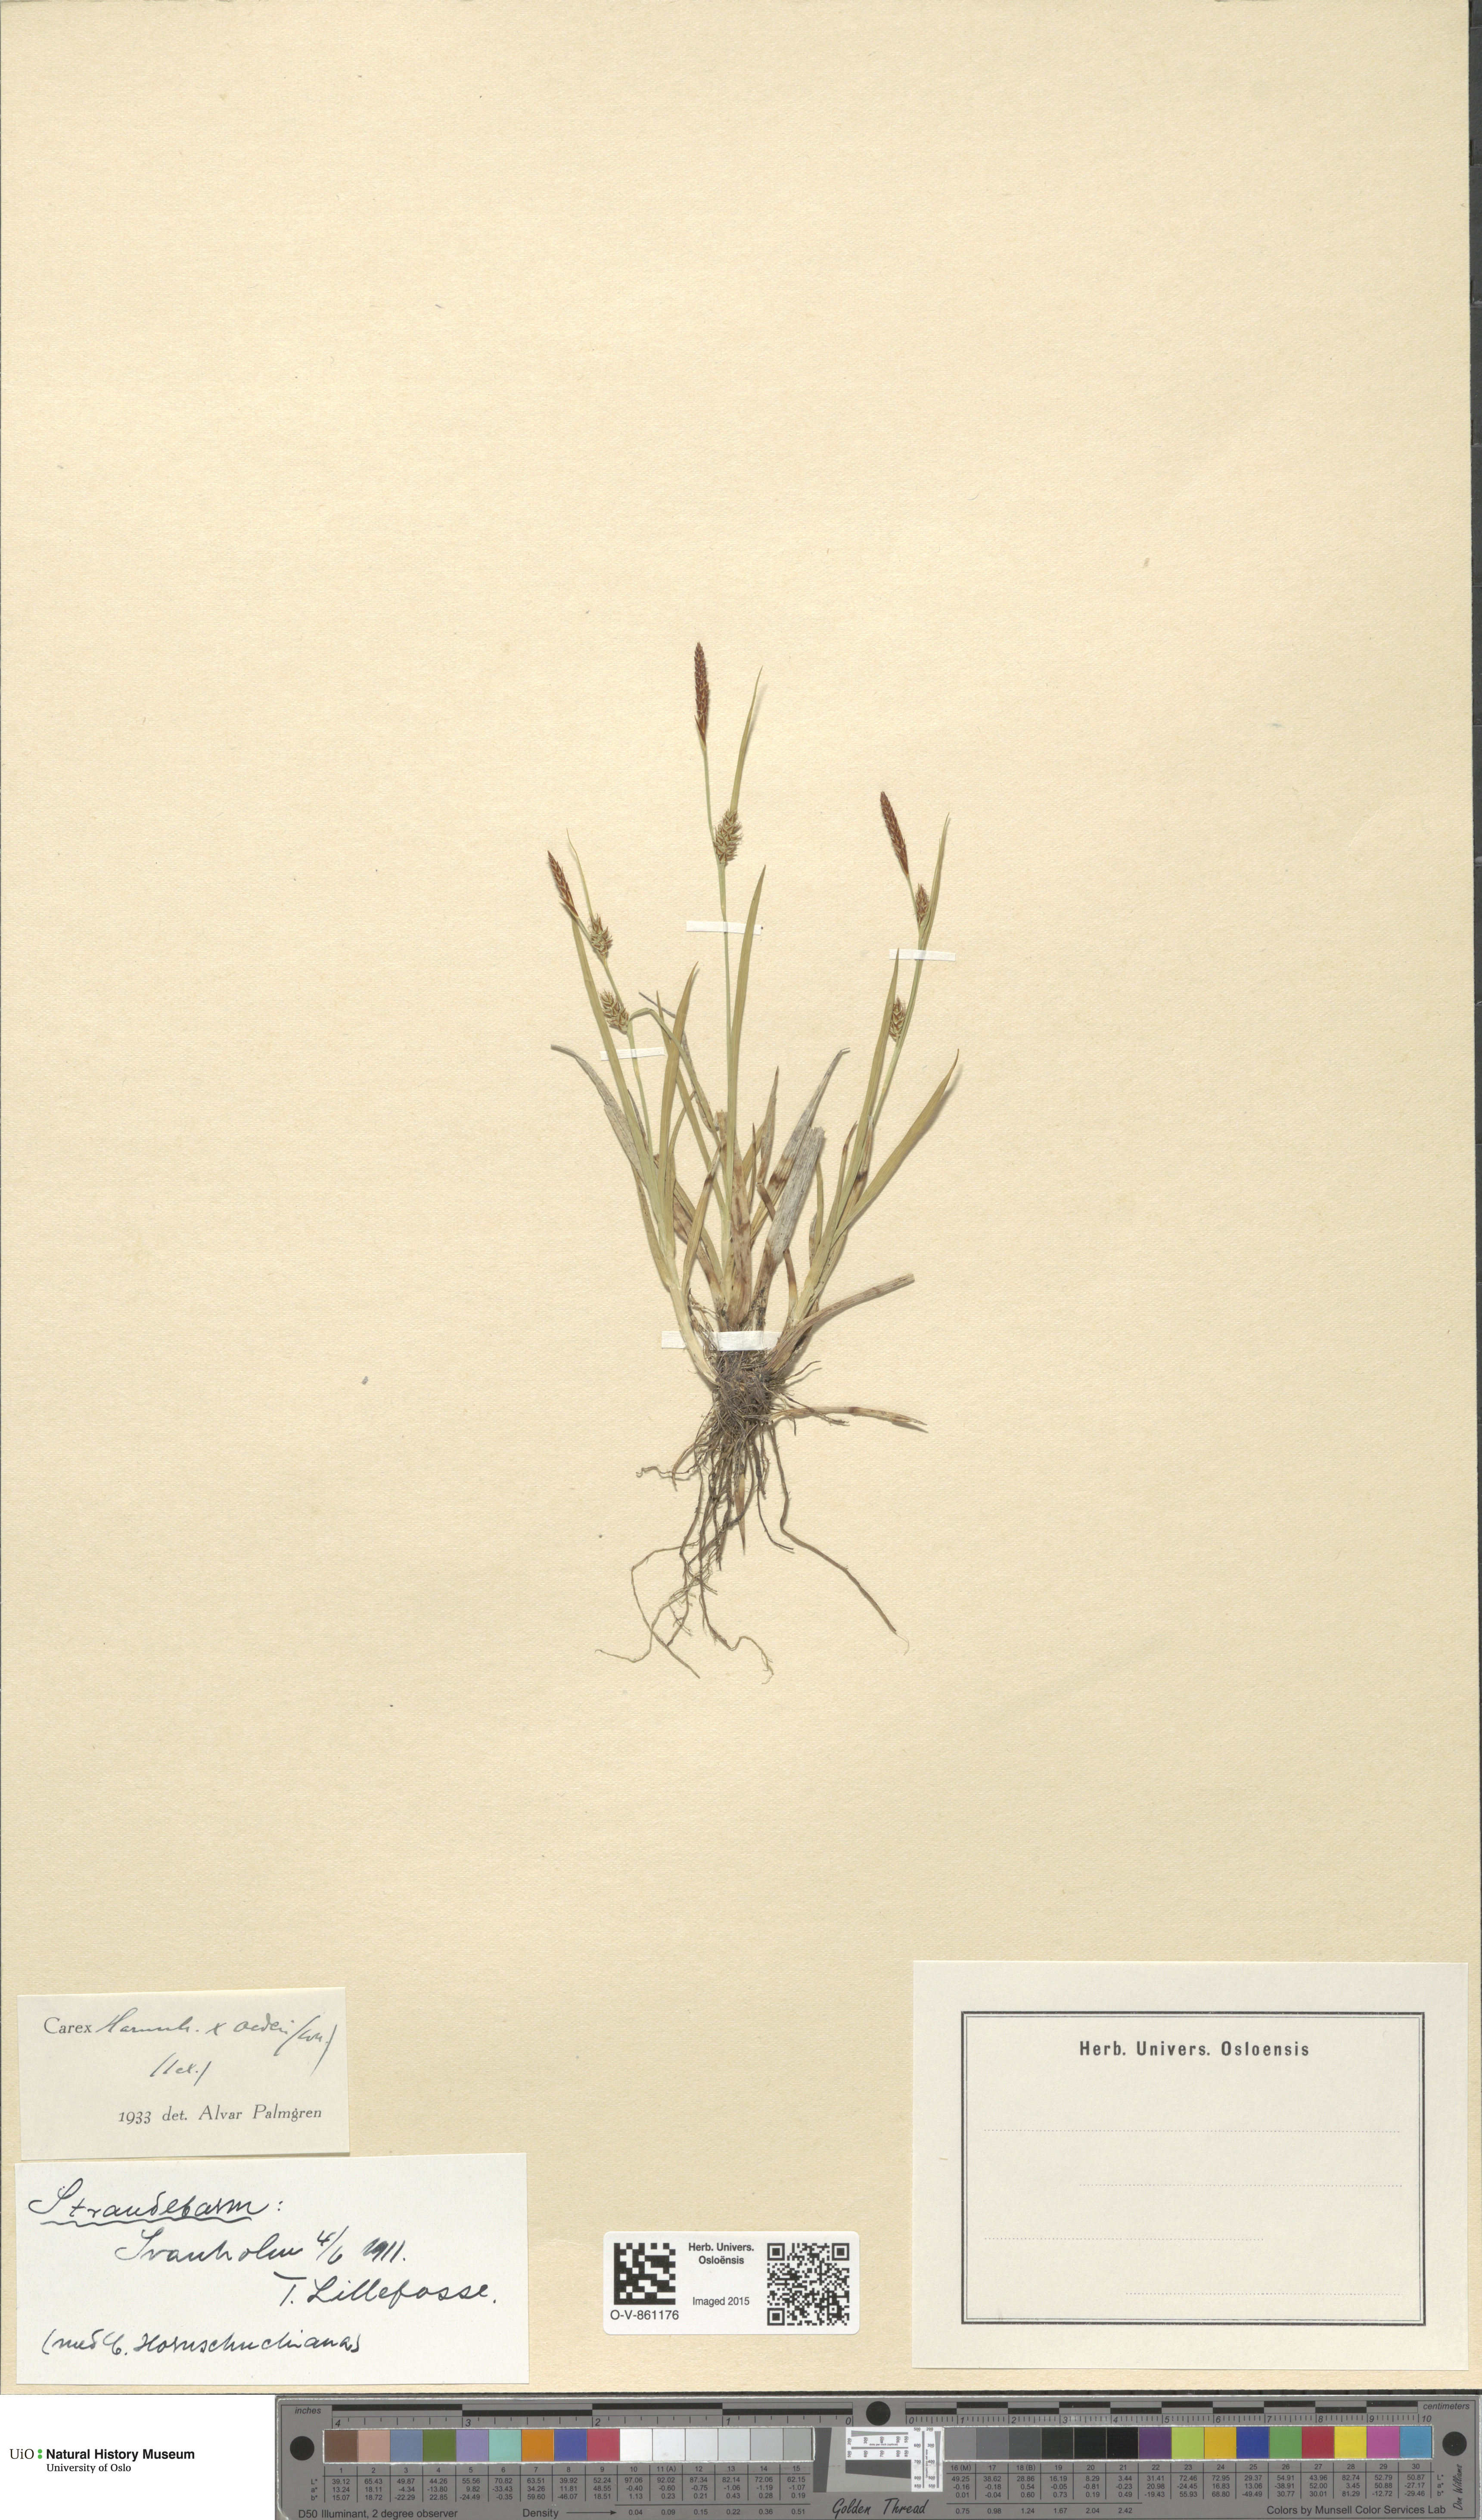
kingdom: Plantae
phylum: Tracheophyta
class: Liliopsida
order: Poales
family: Cyperaceae
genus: Carex
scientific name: Carex
